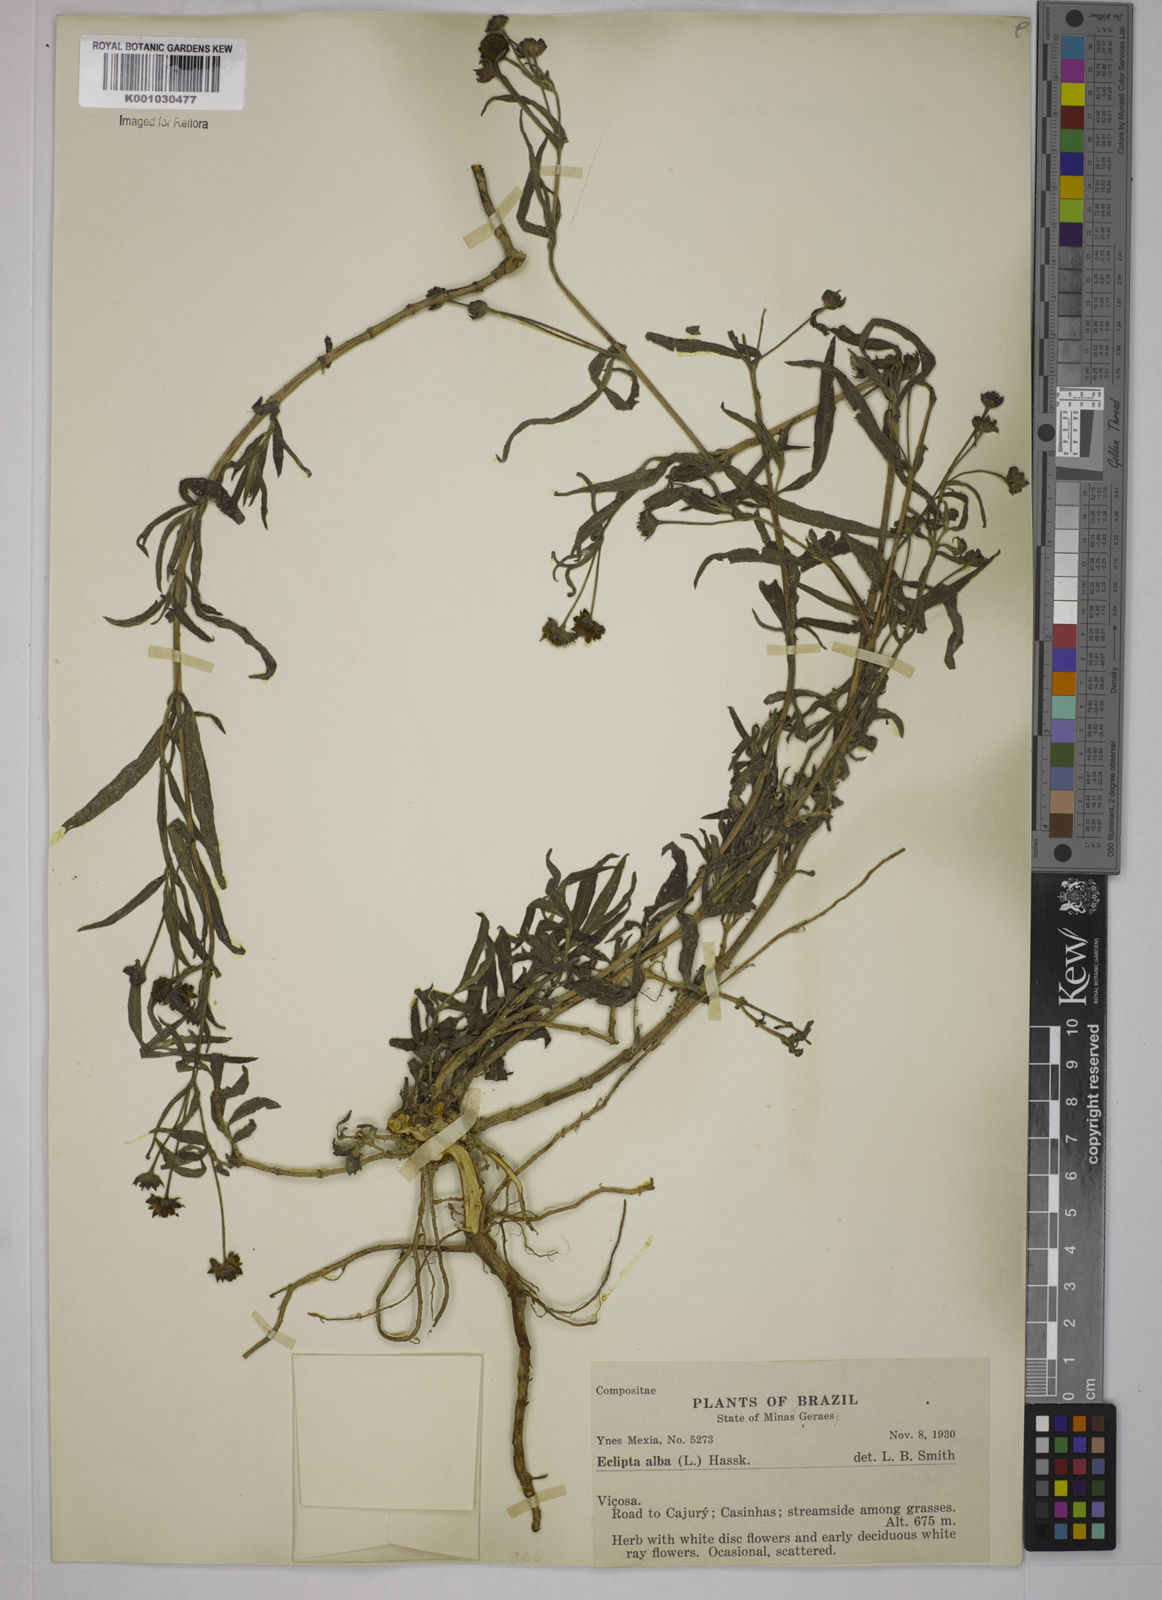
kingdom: Plantae
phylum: Tracheophyta
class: Magnoliopsida
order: Asterales
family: Asteraceae
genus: Eclipta
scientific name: Eclipta prostrata
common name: False daisy
